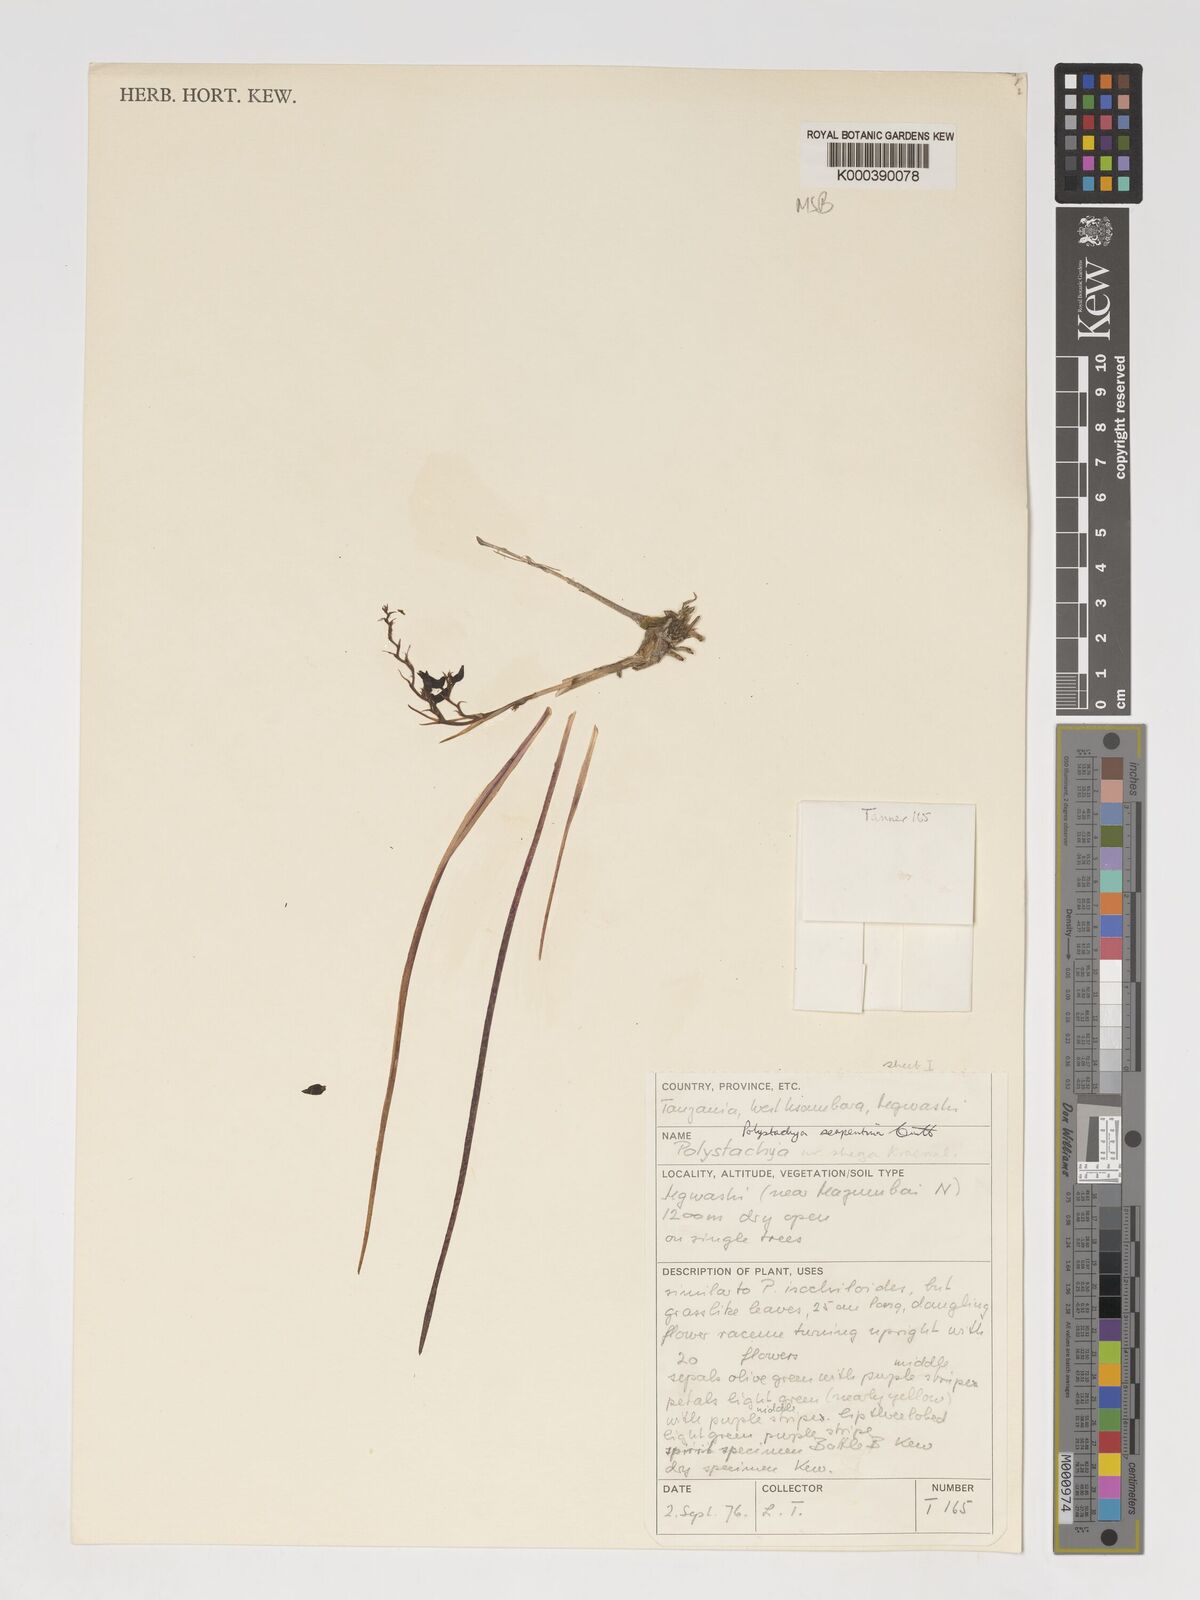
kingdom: Plantae
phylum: Tracheophyta
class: Liliopsida
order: Asparagales
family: Orchidaceae
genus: Polystachya
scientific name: Polystachya serpentina
